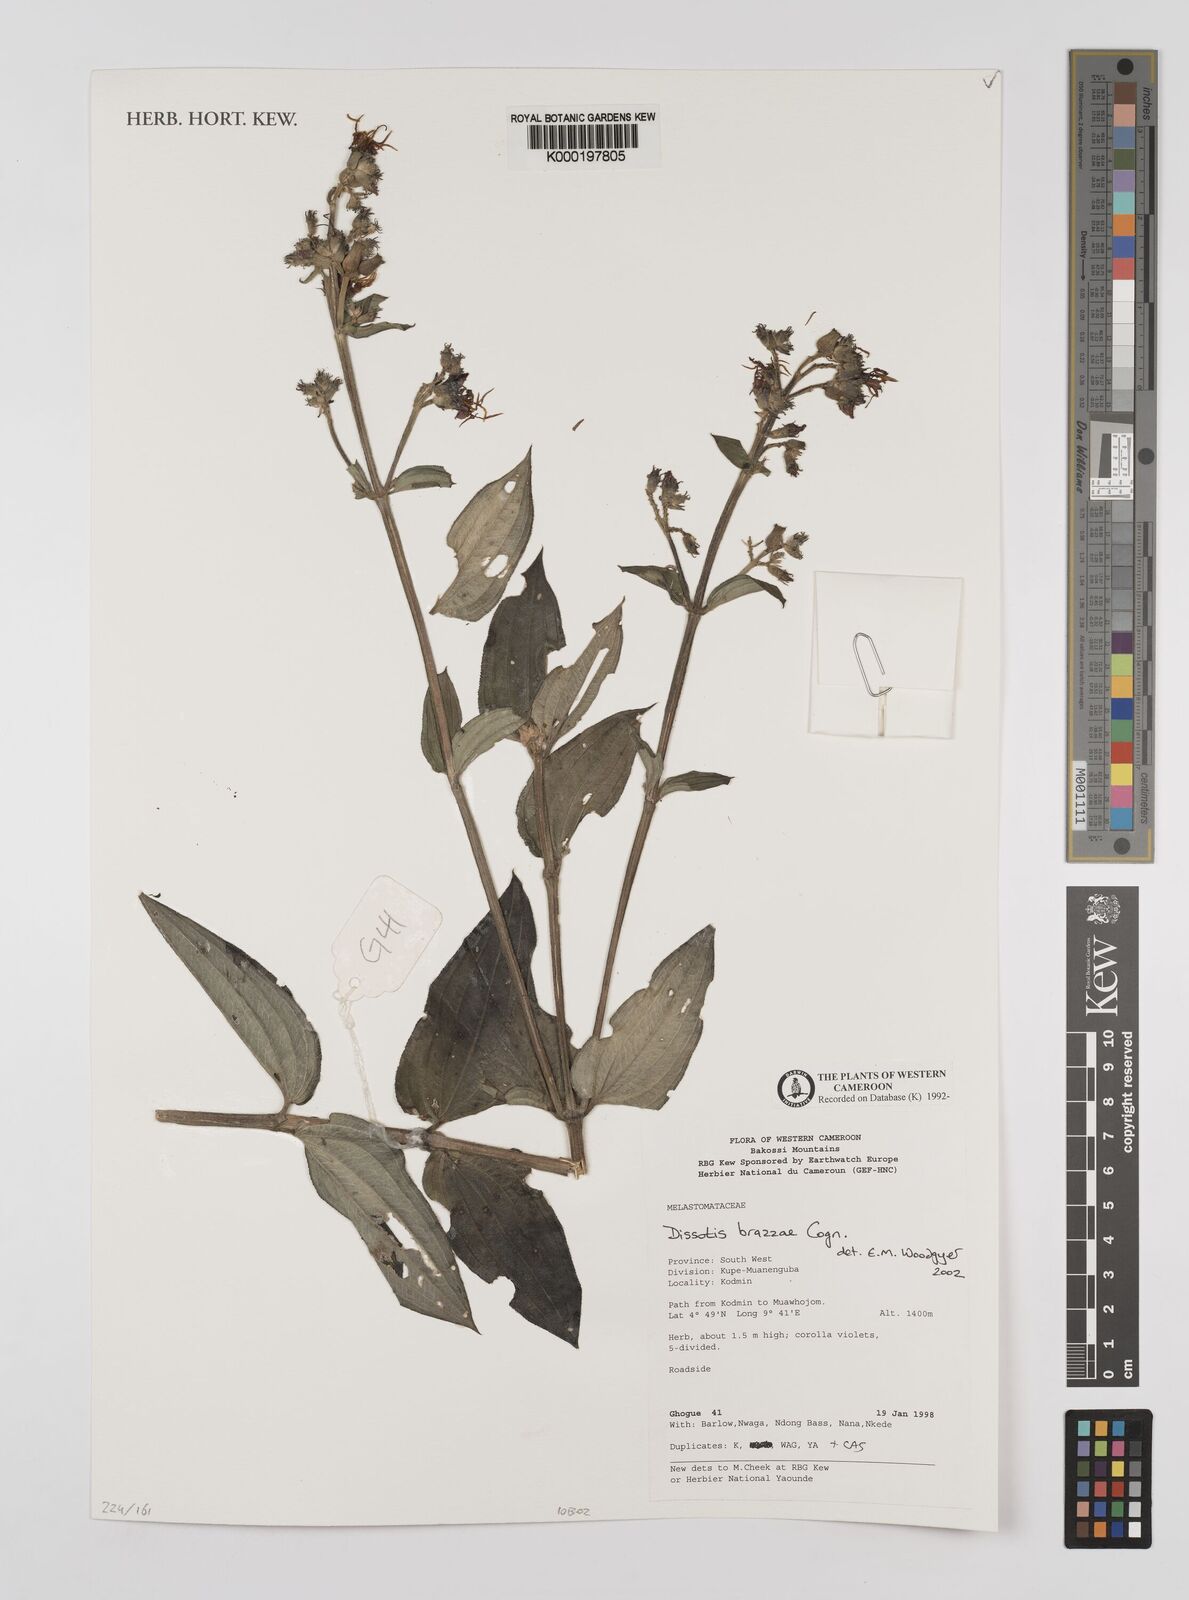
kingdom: Plantae
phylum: Tracheophyta
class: Magnoliopsida
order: Myrtales
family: Melastomataceae
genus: Dupineta
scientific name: Dupineta brazzae
